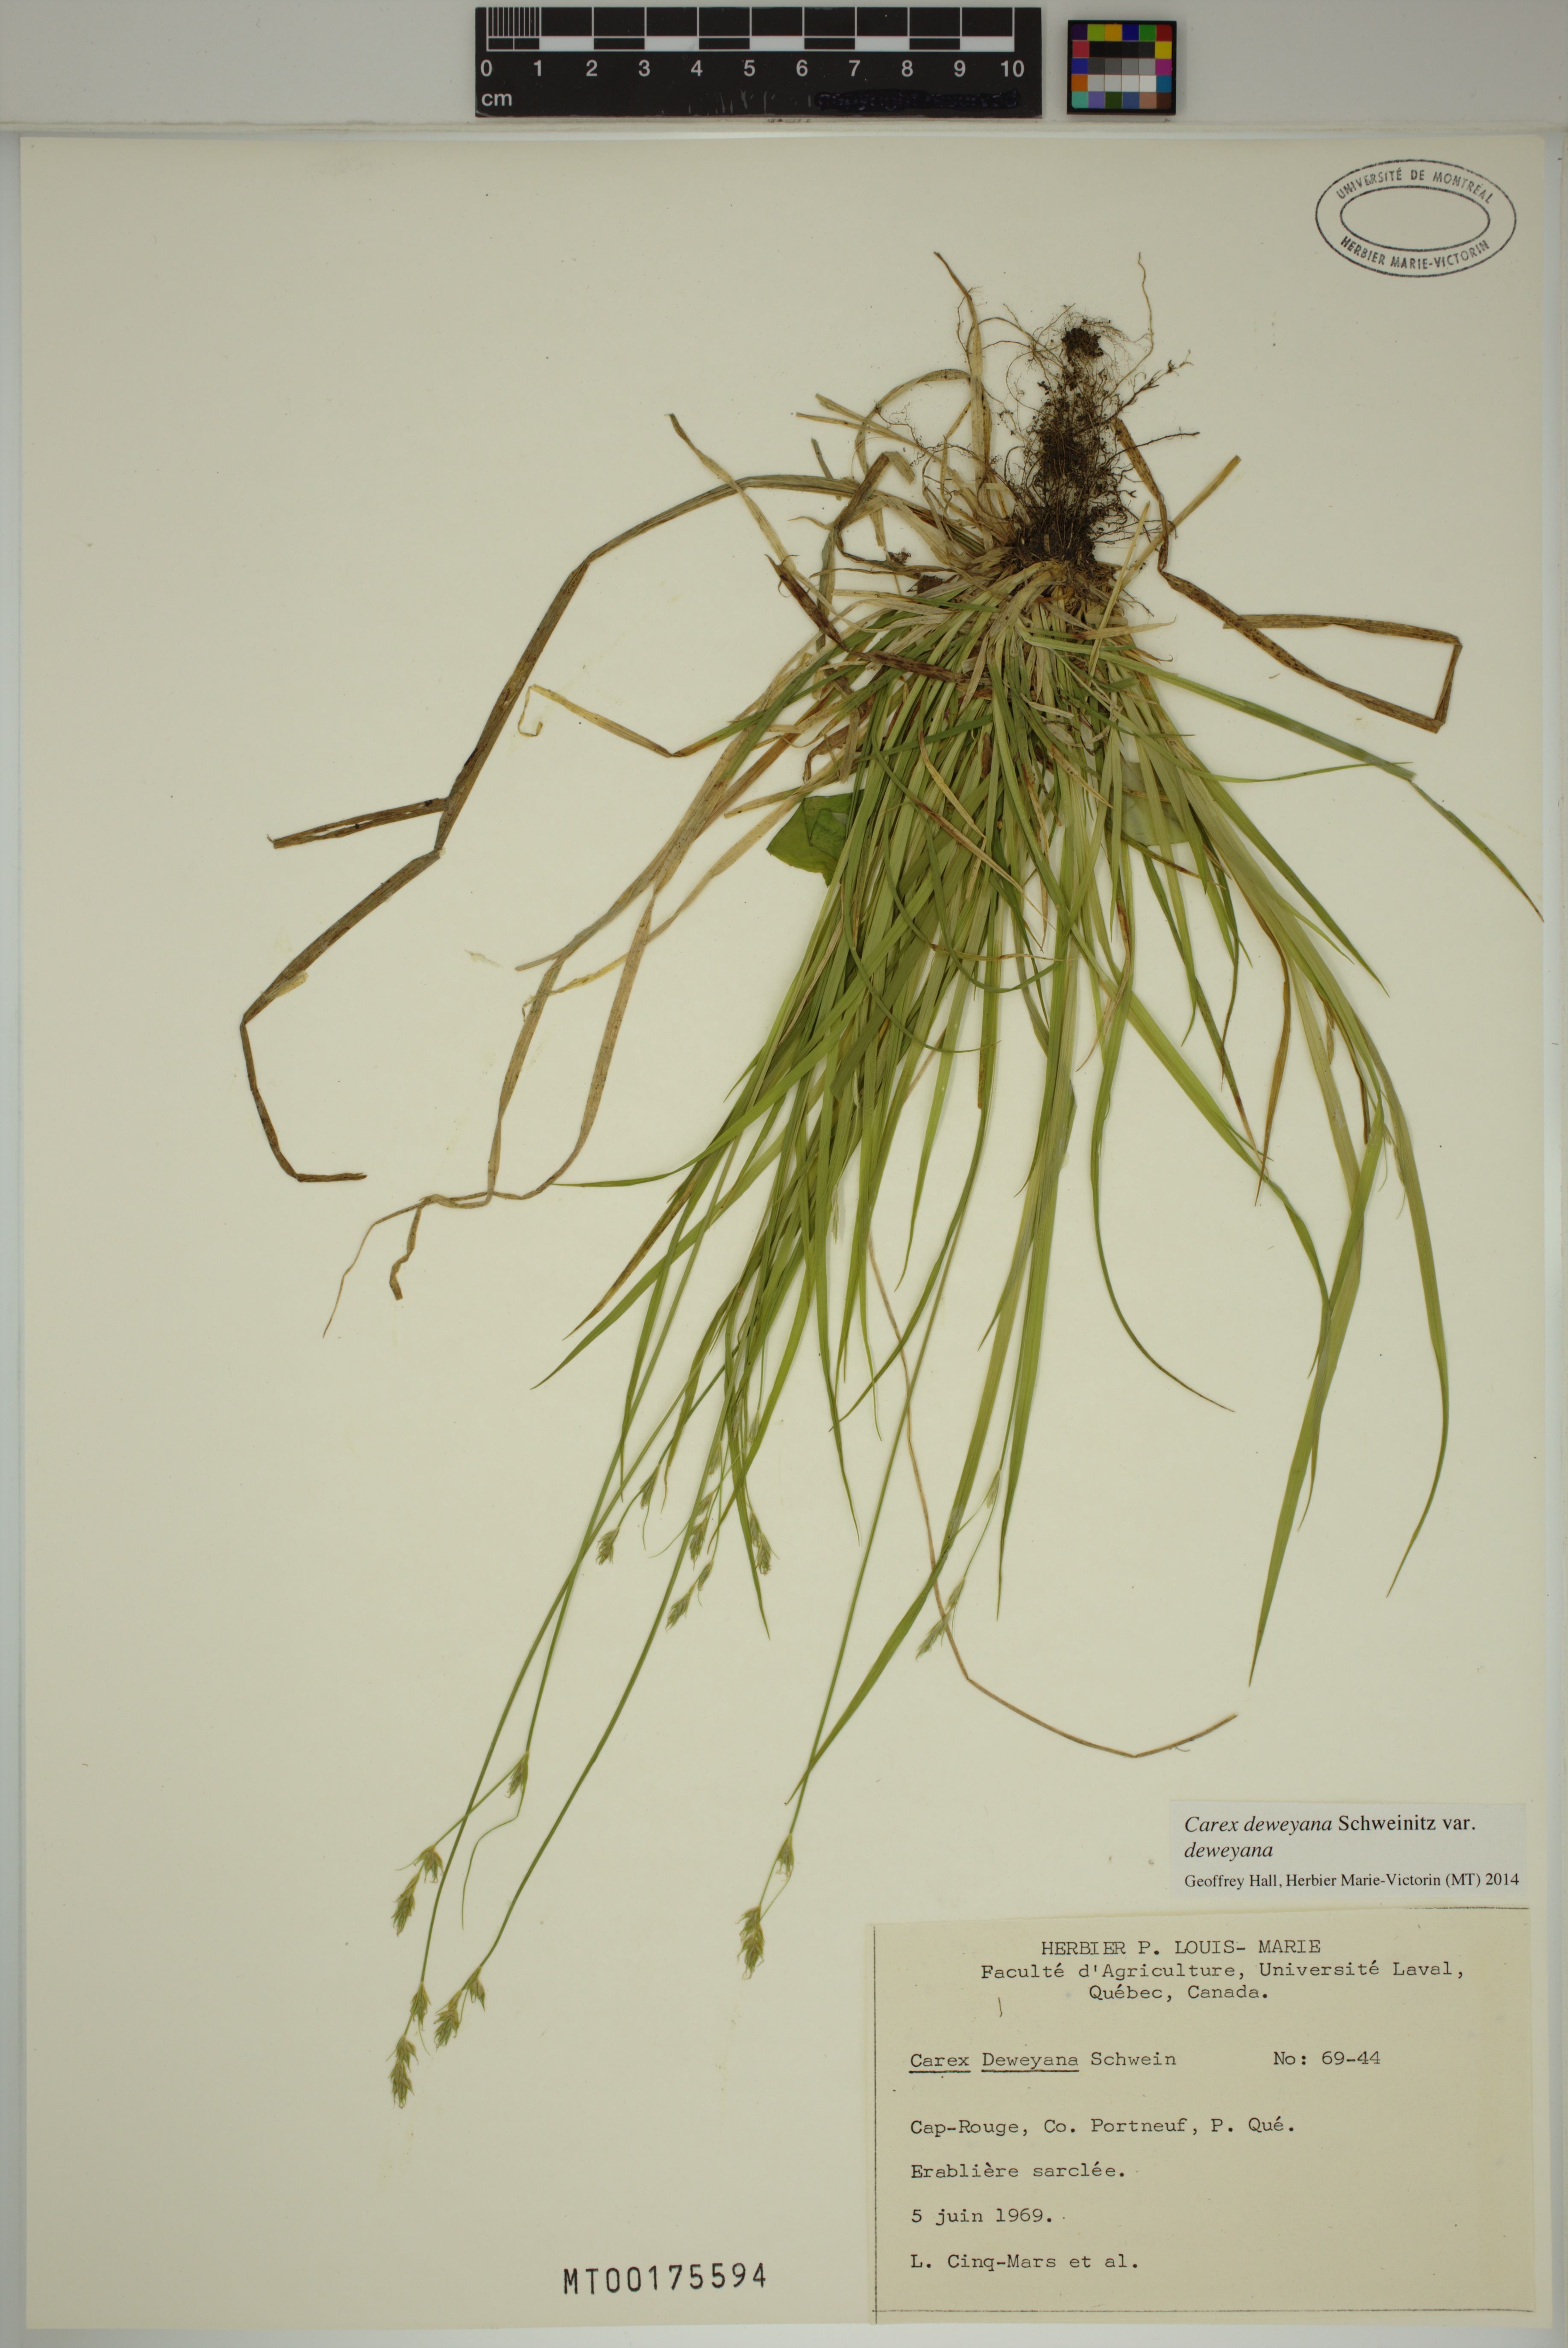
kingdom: Plantae
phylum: Tracheophyta
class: Liliopsida
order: Poales
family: Cyperaceae
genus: Carex
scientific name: Carex deweyana
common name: Dewey's sedge
